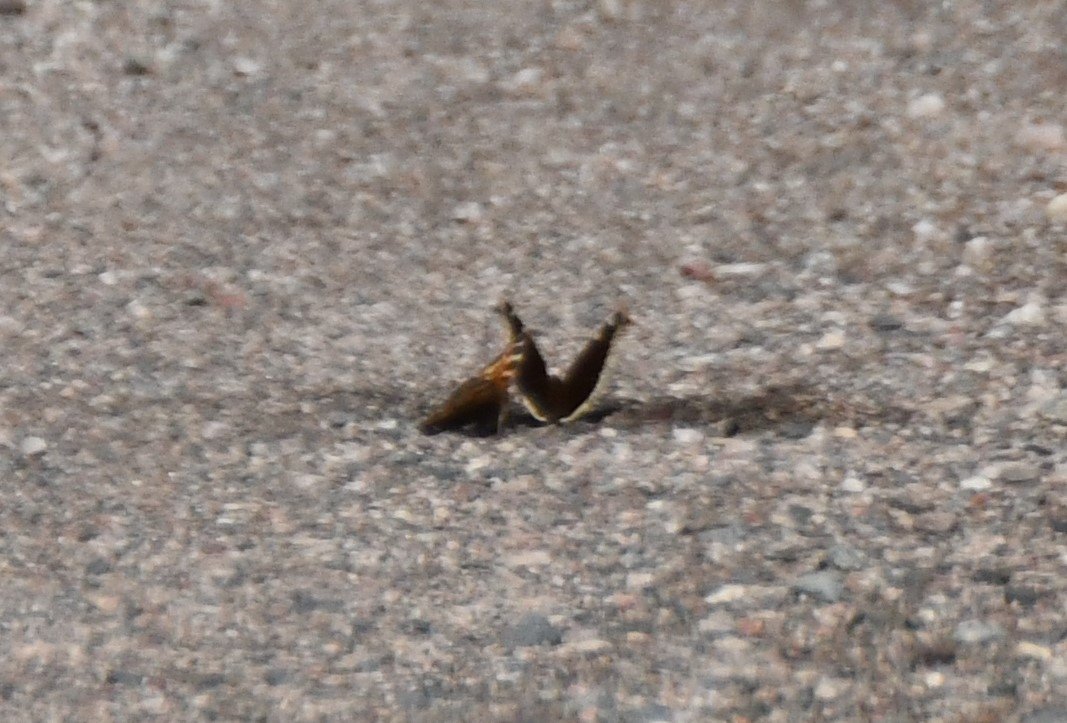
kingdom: Animalia
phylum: Arthropoda
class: Insecta
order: Lepidoptera
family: Nymphalidae
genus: Nymphalis
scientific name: Nymphalis antiopa
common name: Mourning Cloak
